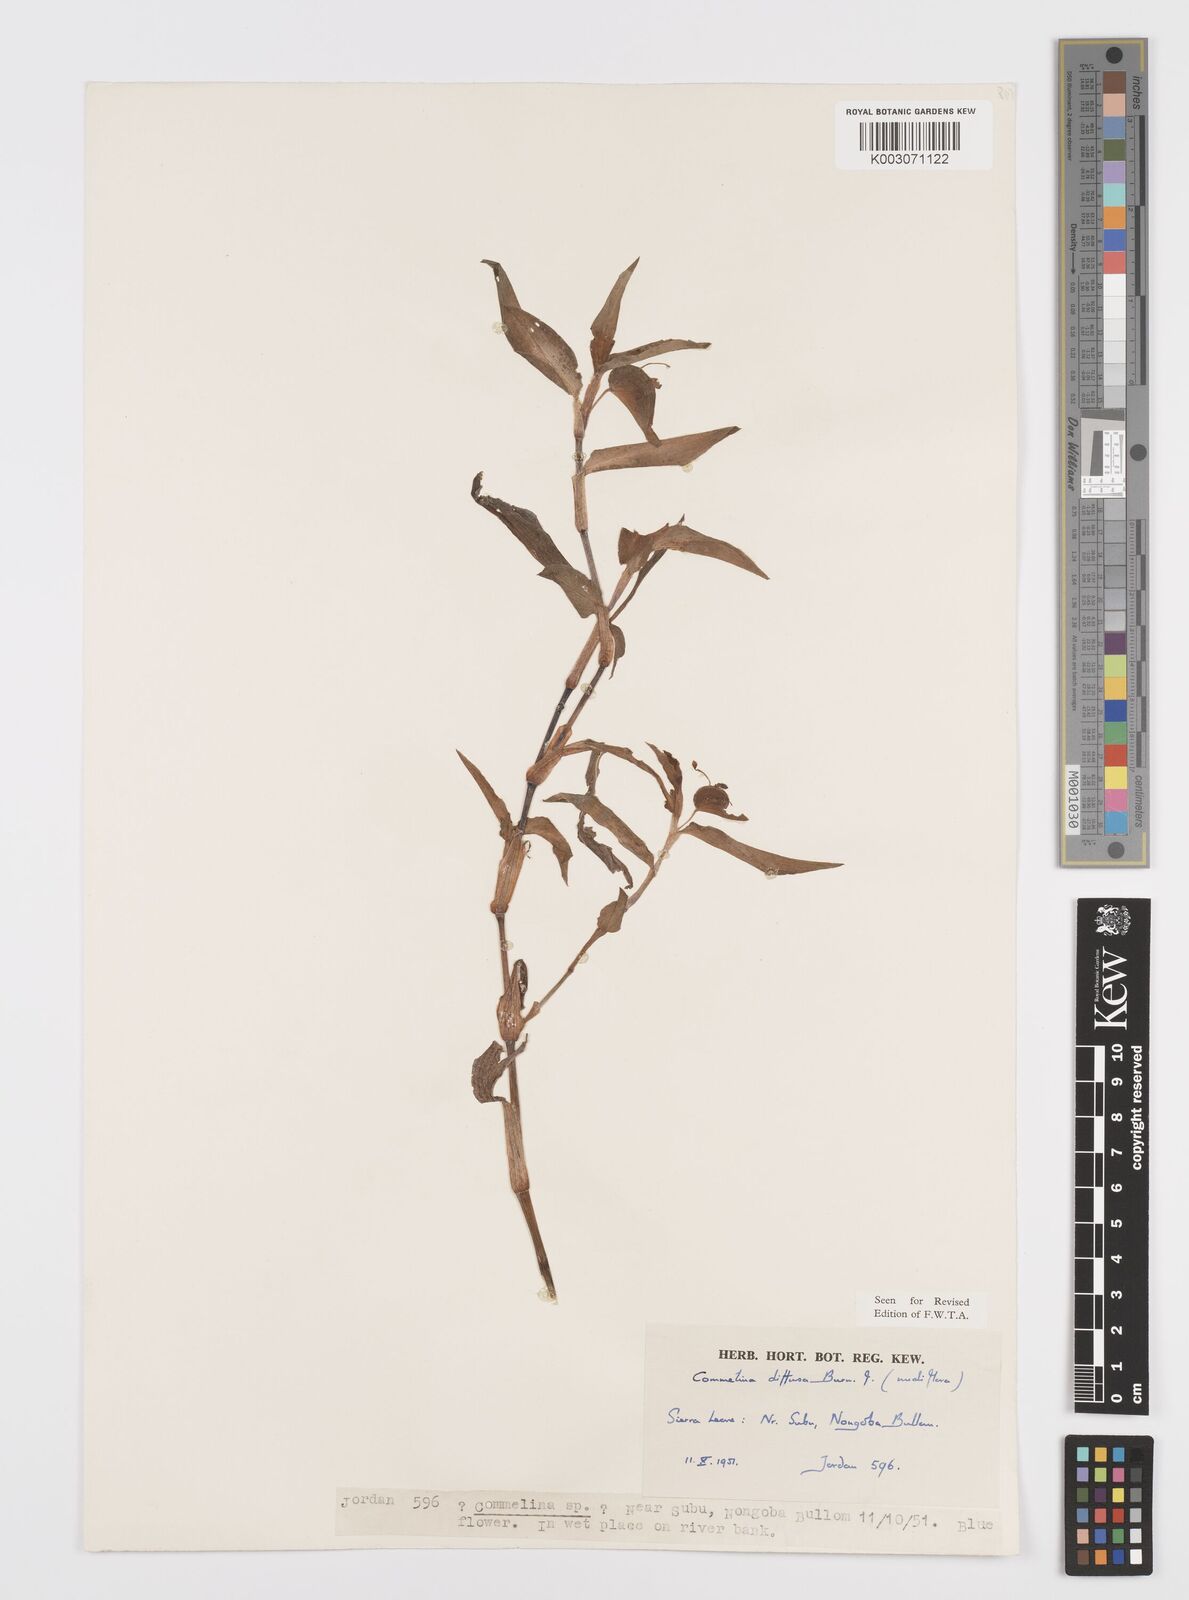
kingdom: Plantae
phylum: Tracheophyta
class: Liliopsida
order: Commelinales
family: Commelinaceae
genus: Commelina
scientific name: Commelina diffusa
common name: Climbing dayflower
